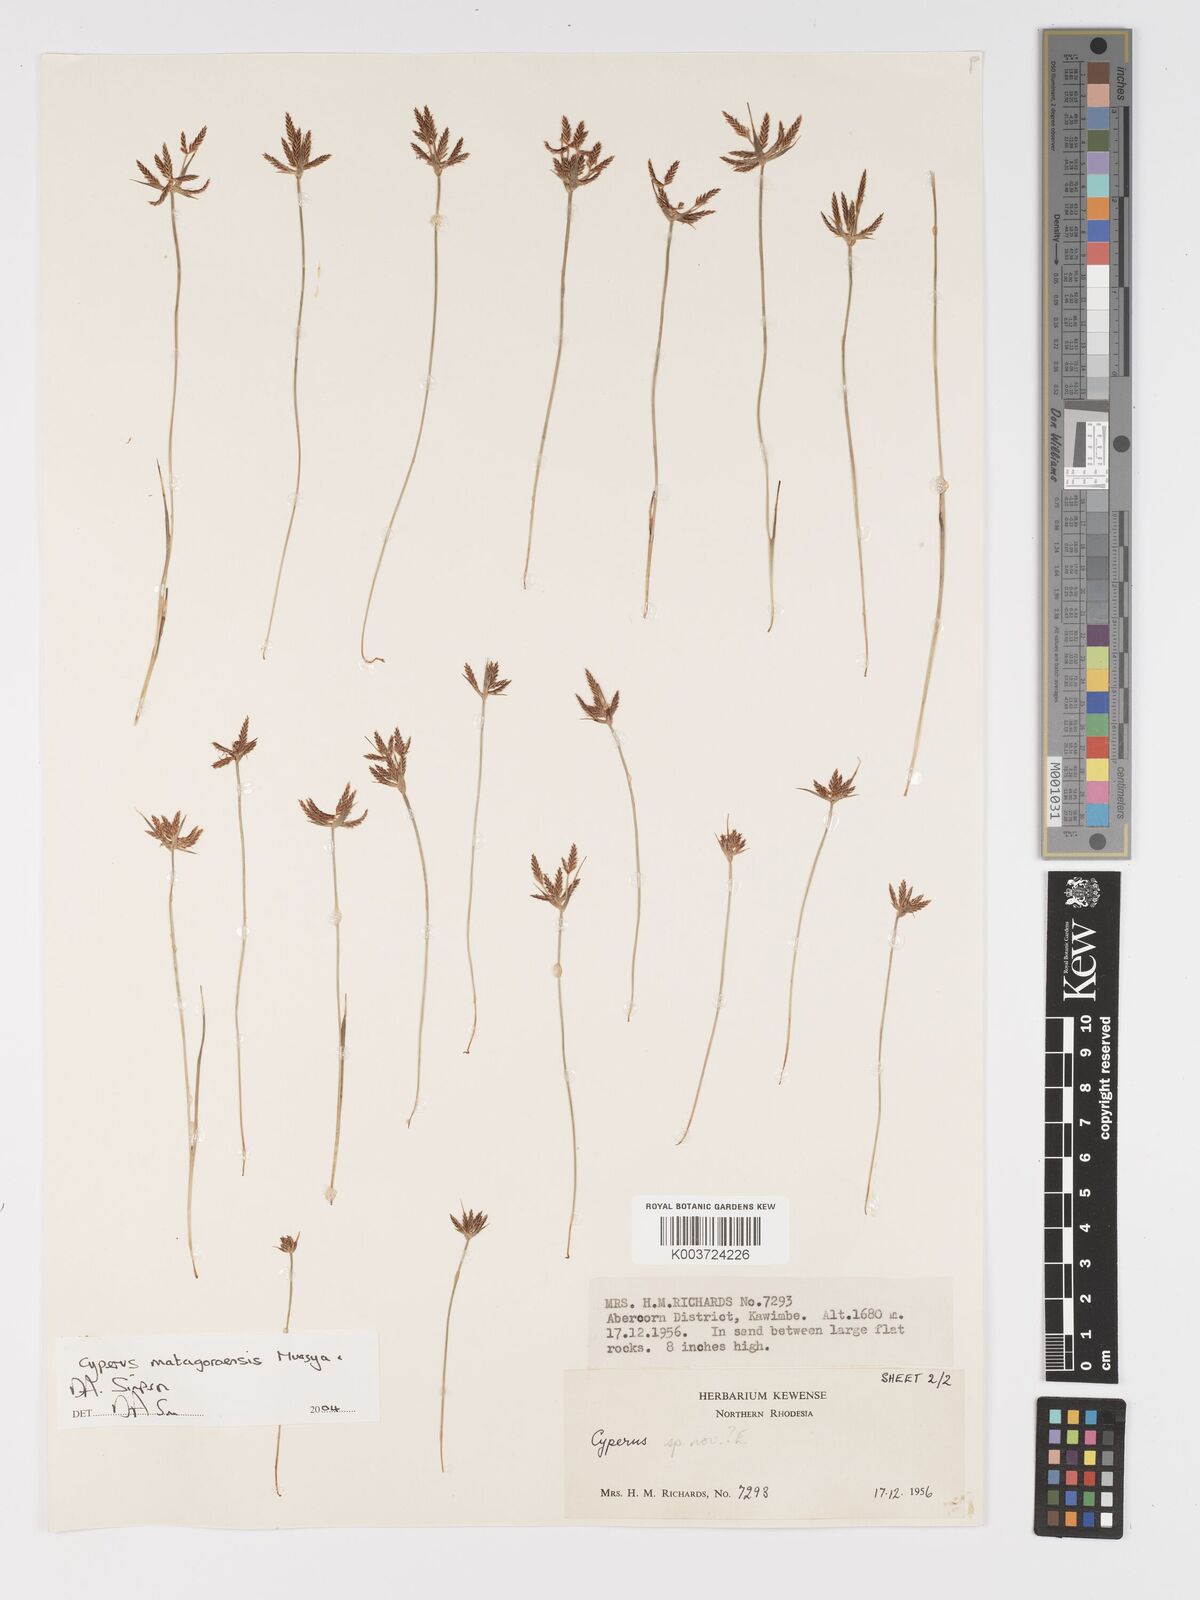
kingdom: Plantae
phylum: Tracheophyta
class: Liliopsida
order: Poales
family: Cyperaceae
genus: Cyperus
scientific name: Cyperus matagoroensis
